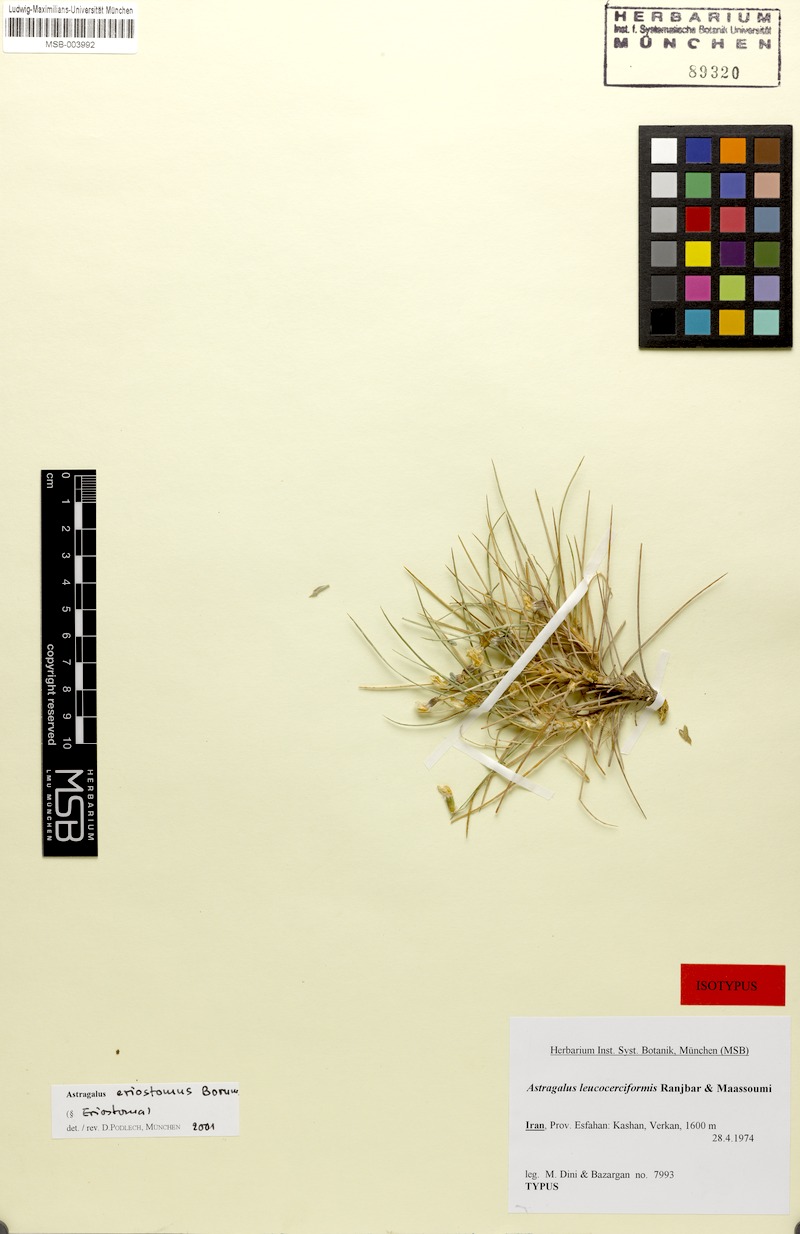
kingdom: Plantae
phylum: Tracheophyta
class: Magnoliopsida
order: Fabales
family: Fabaceae
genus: Astragalus
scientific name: Astragalus eriostomus
